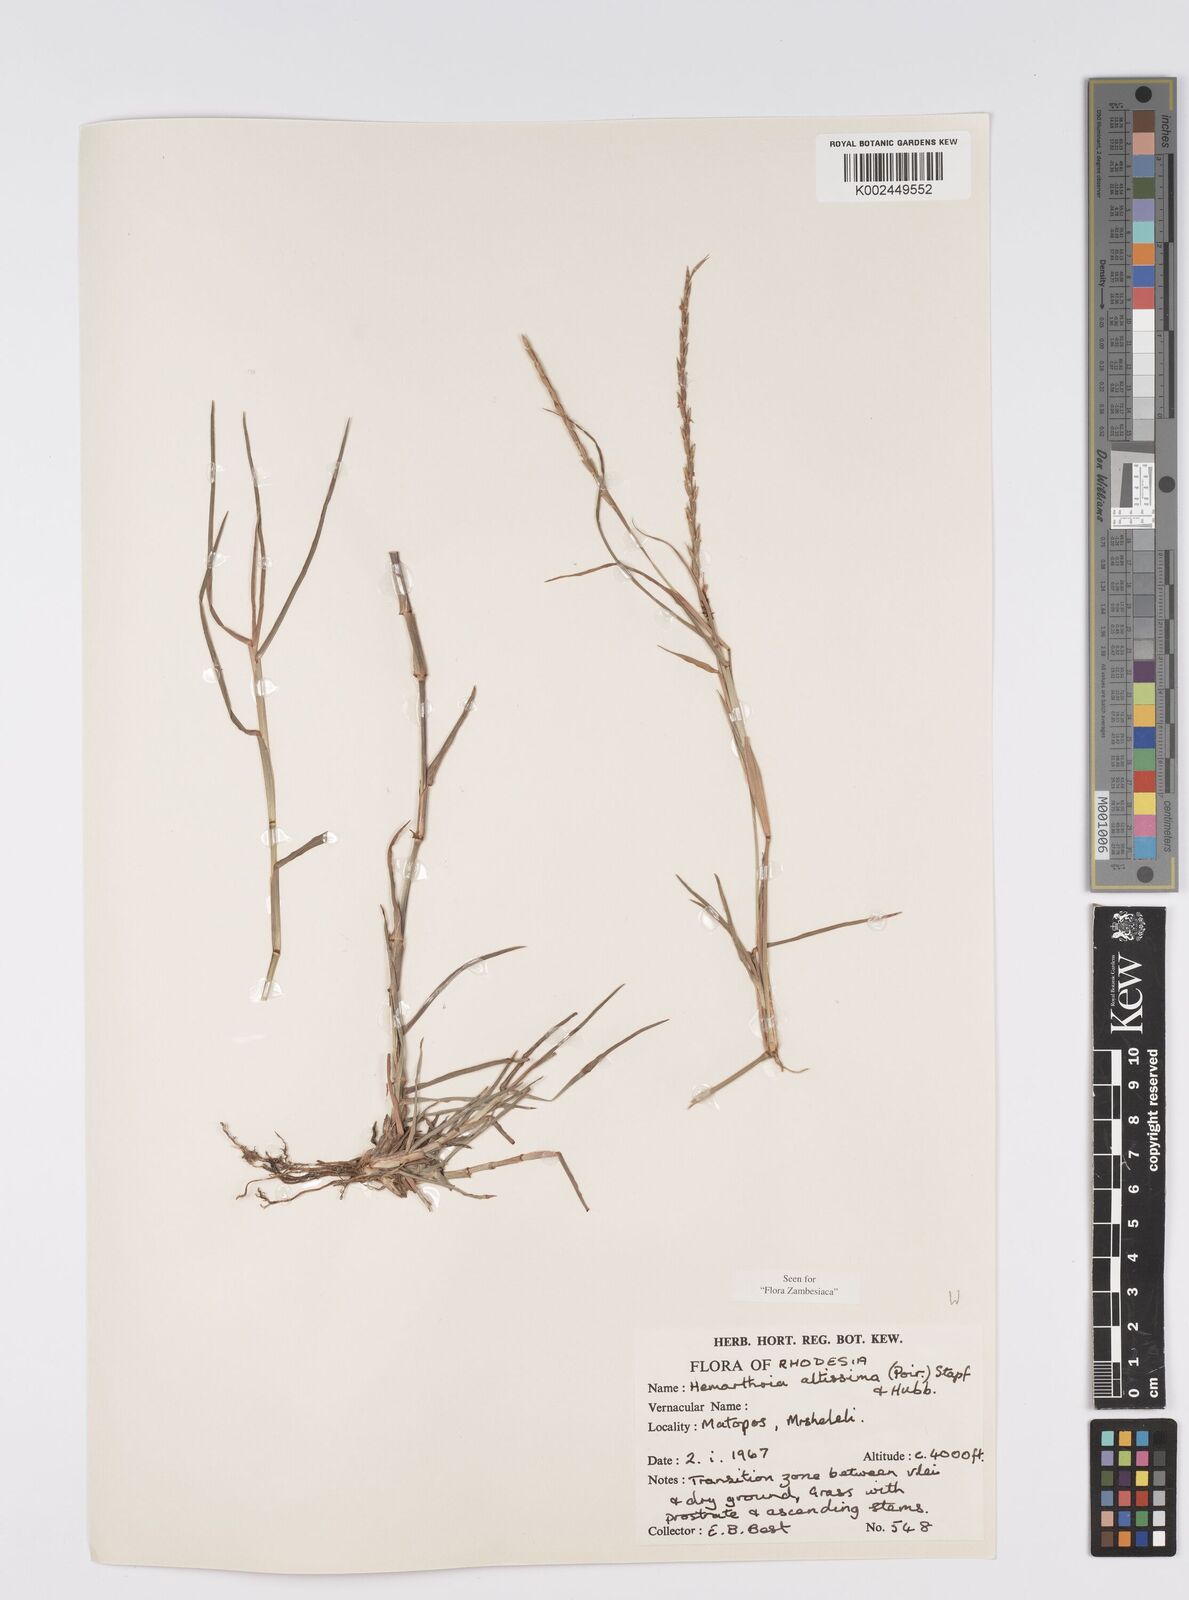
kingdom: Plantae
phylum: Tracheophyta
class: Liliopsida
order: Poales
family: Poaceae
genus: Hemarthria
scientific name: Hemarthria altissima
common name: African jointgrass
